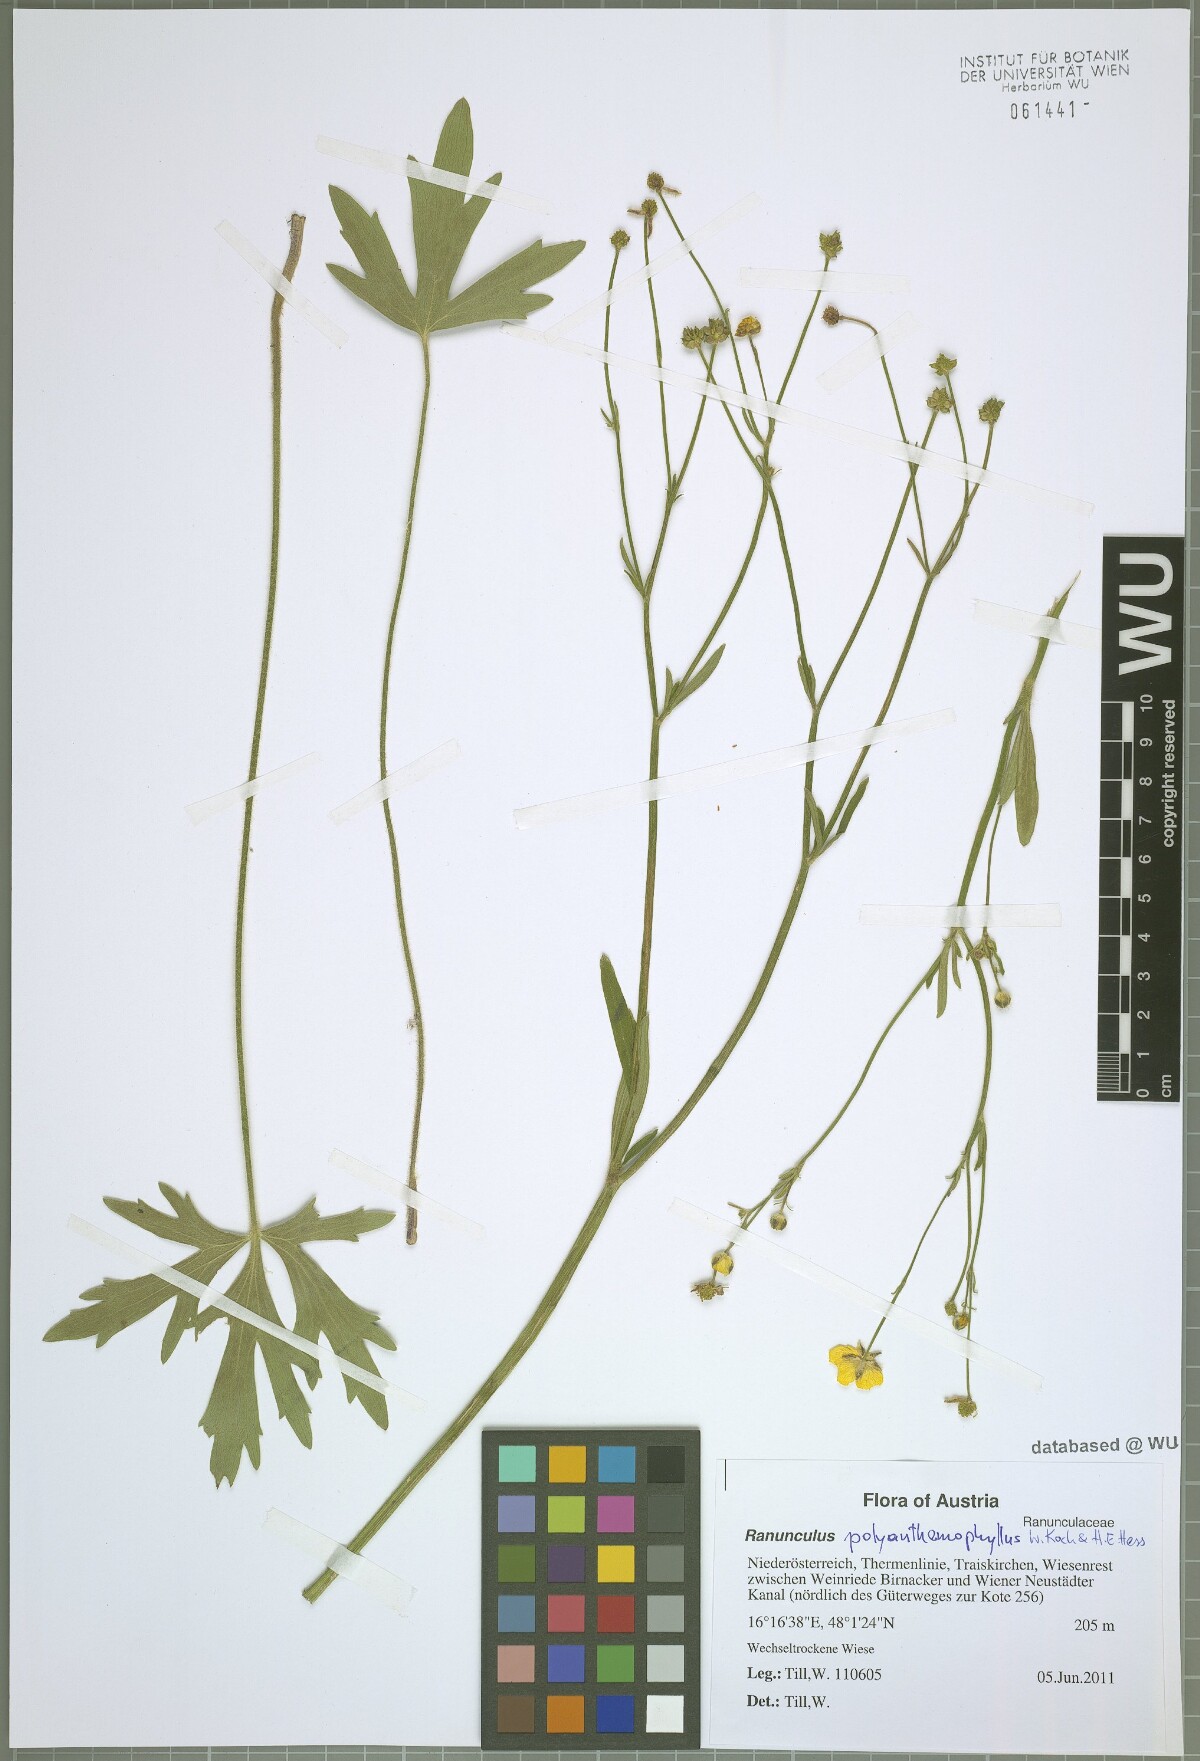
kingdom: Plantae
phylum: Tracheophyta
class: Magnoliopsida
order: Ranunculales
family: Ranunculaceae
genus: Ranunculus
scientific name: Ranunculus polyanthemos
